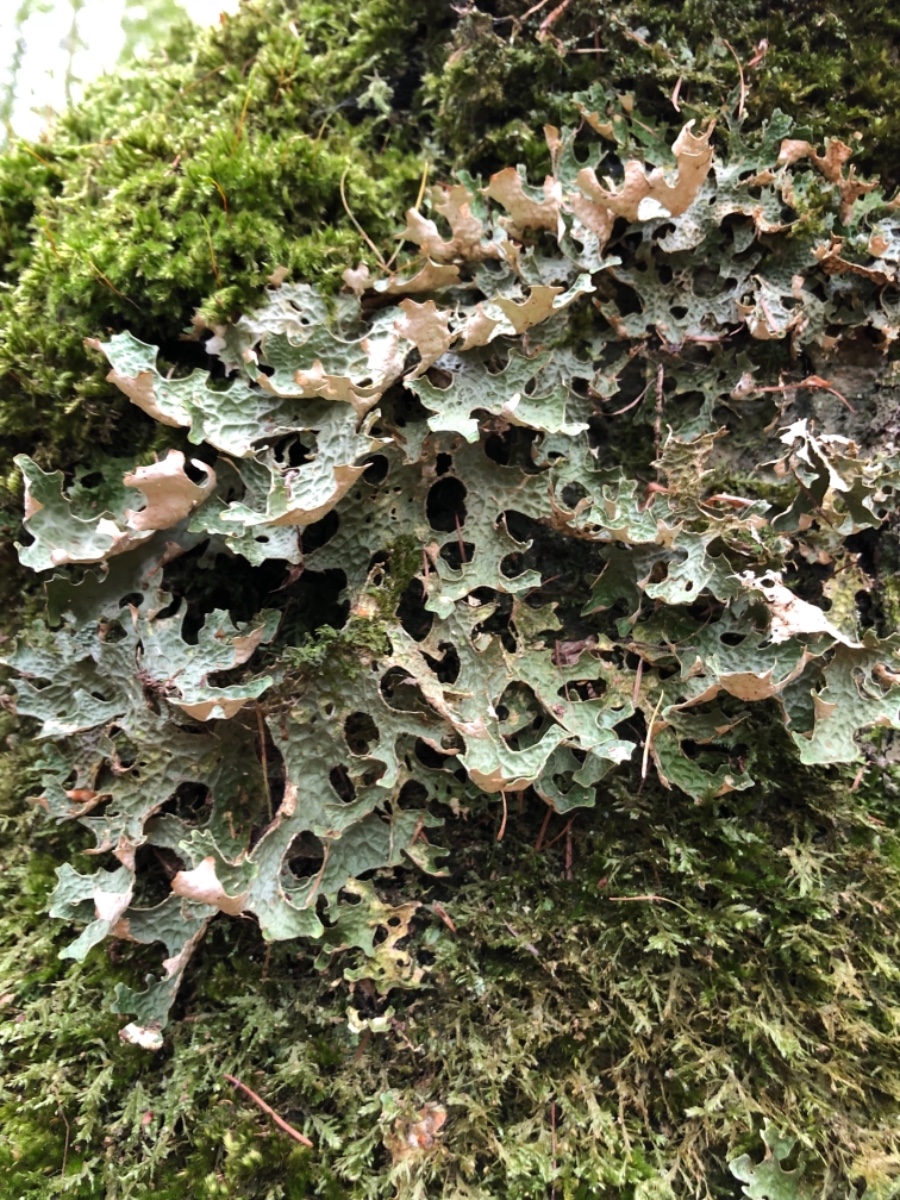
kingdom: Fungi
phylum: Ascomycota
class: Lecanoromycetes
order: Peltigerales
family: Lobariaceae
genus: Lobaria
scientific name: Lobaria pulmonaria
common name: almindelig lungelav
